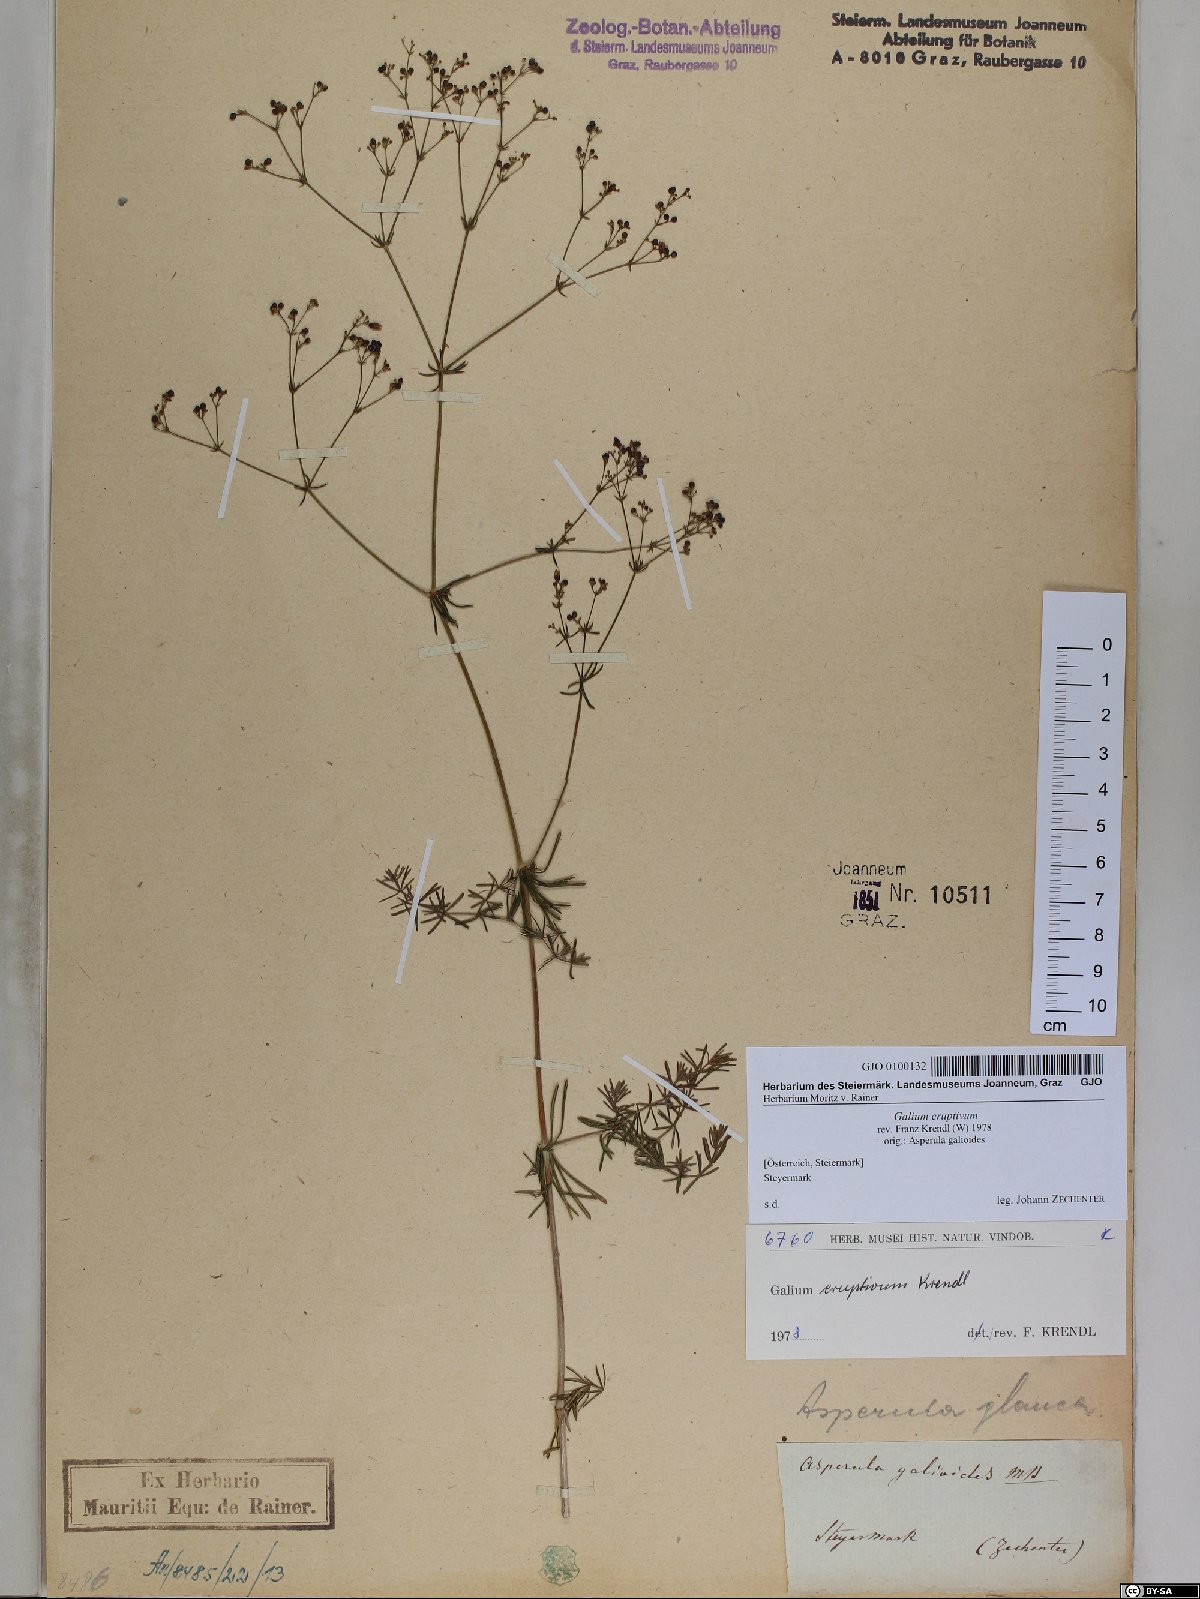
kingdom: Plantae
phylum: Tracheophyta
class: Magnoliopsida
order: Gentianales
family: Rubiaceae
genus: Galium
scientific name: Galium eruptivum
